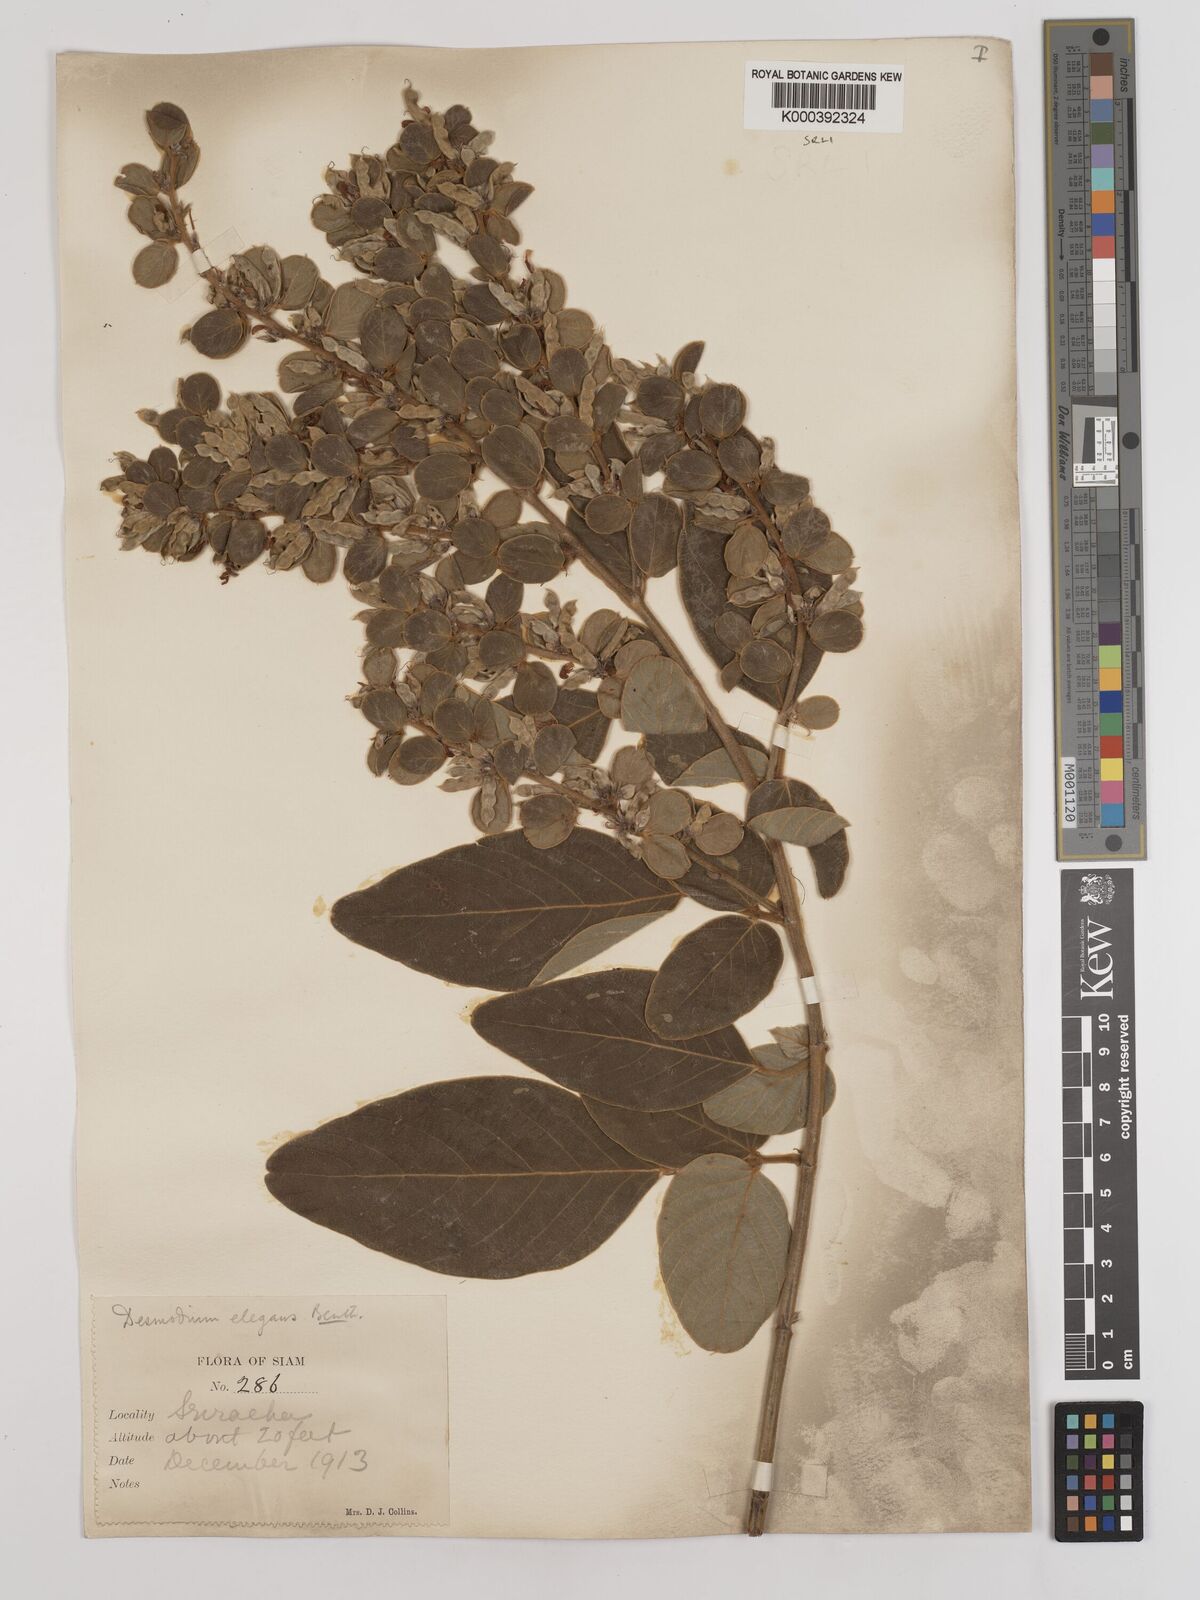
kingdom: Plantae
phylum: Tracheophyta
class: Magnoliopsida
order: Fabales
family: Fabaceae
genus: Phyllodium
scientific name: Phyllodium elegans
